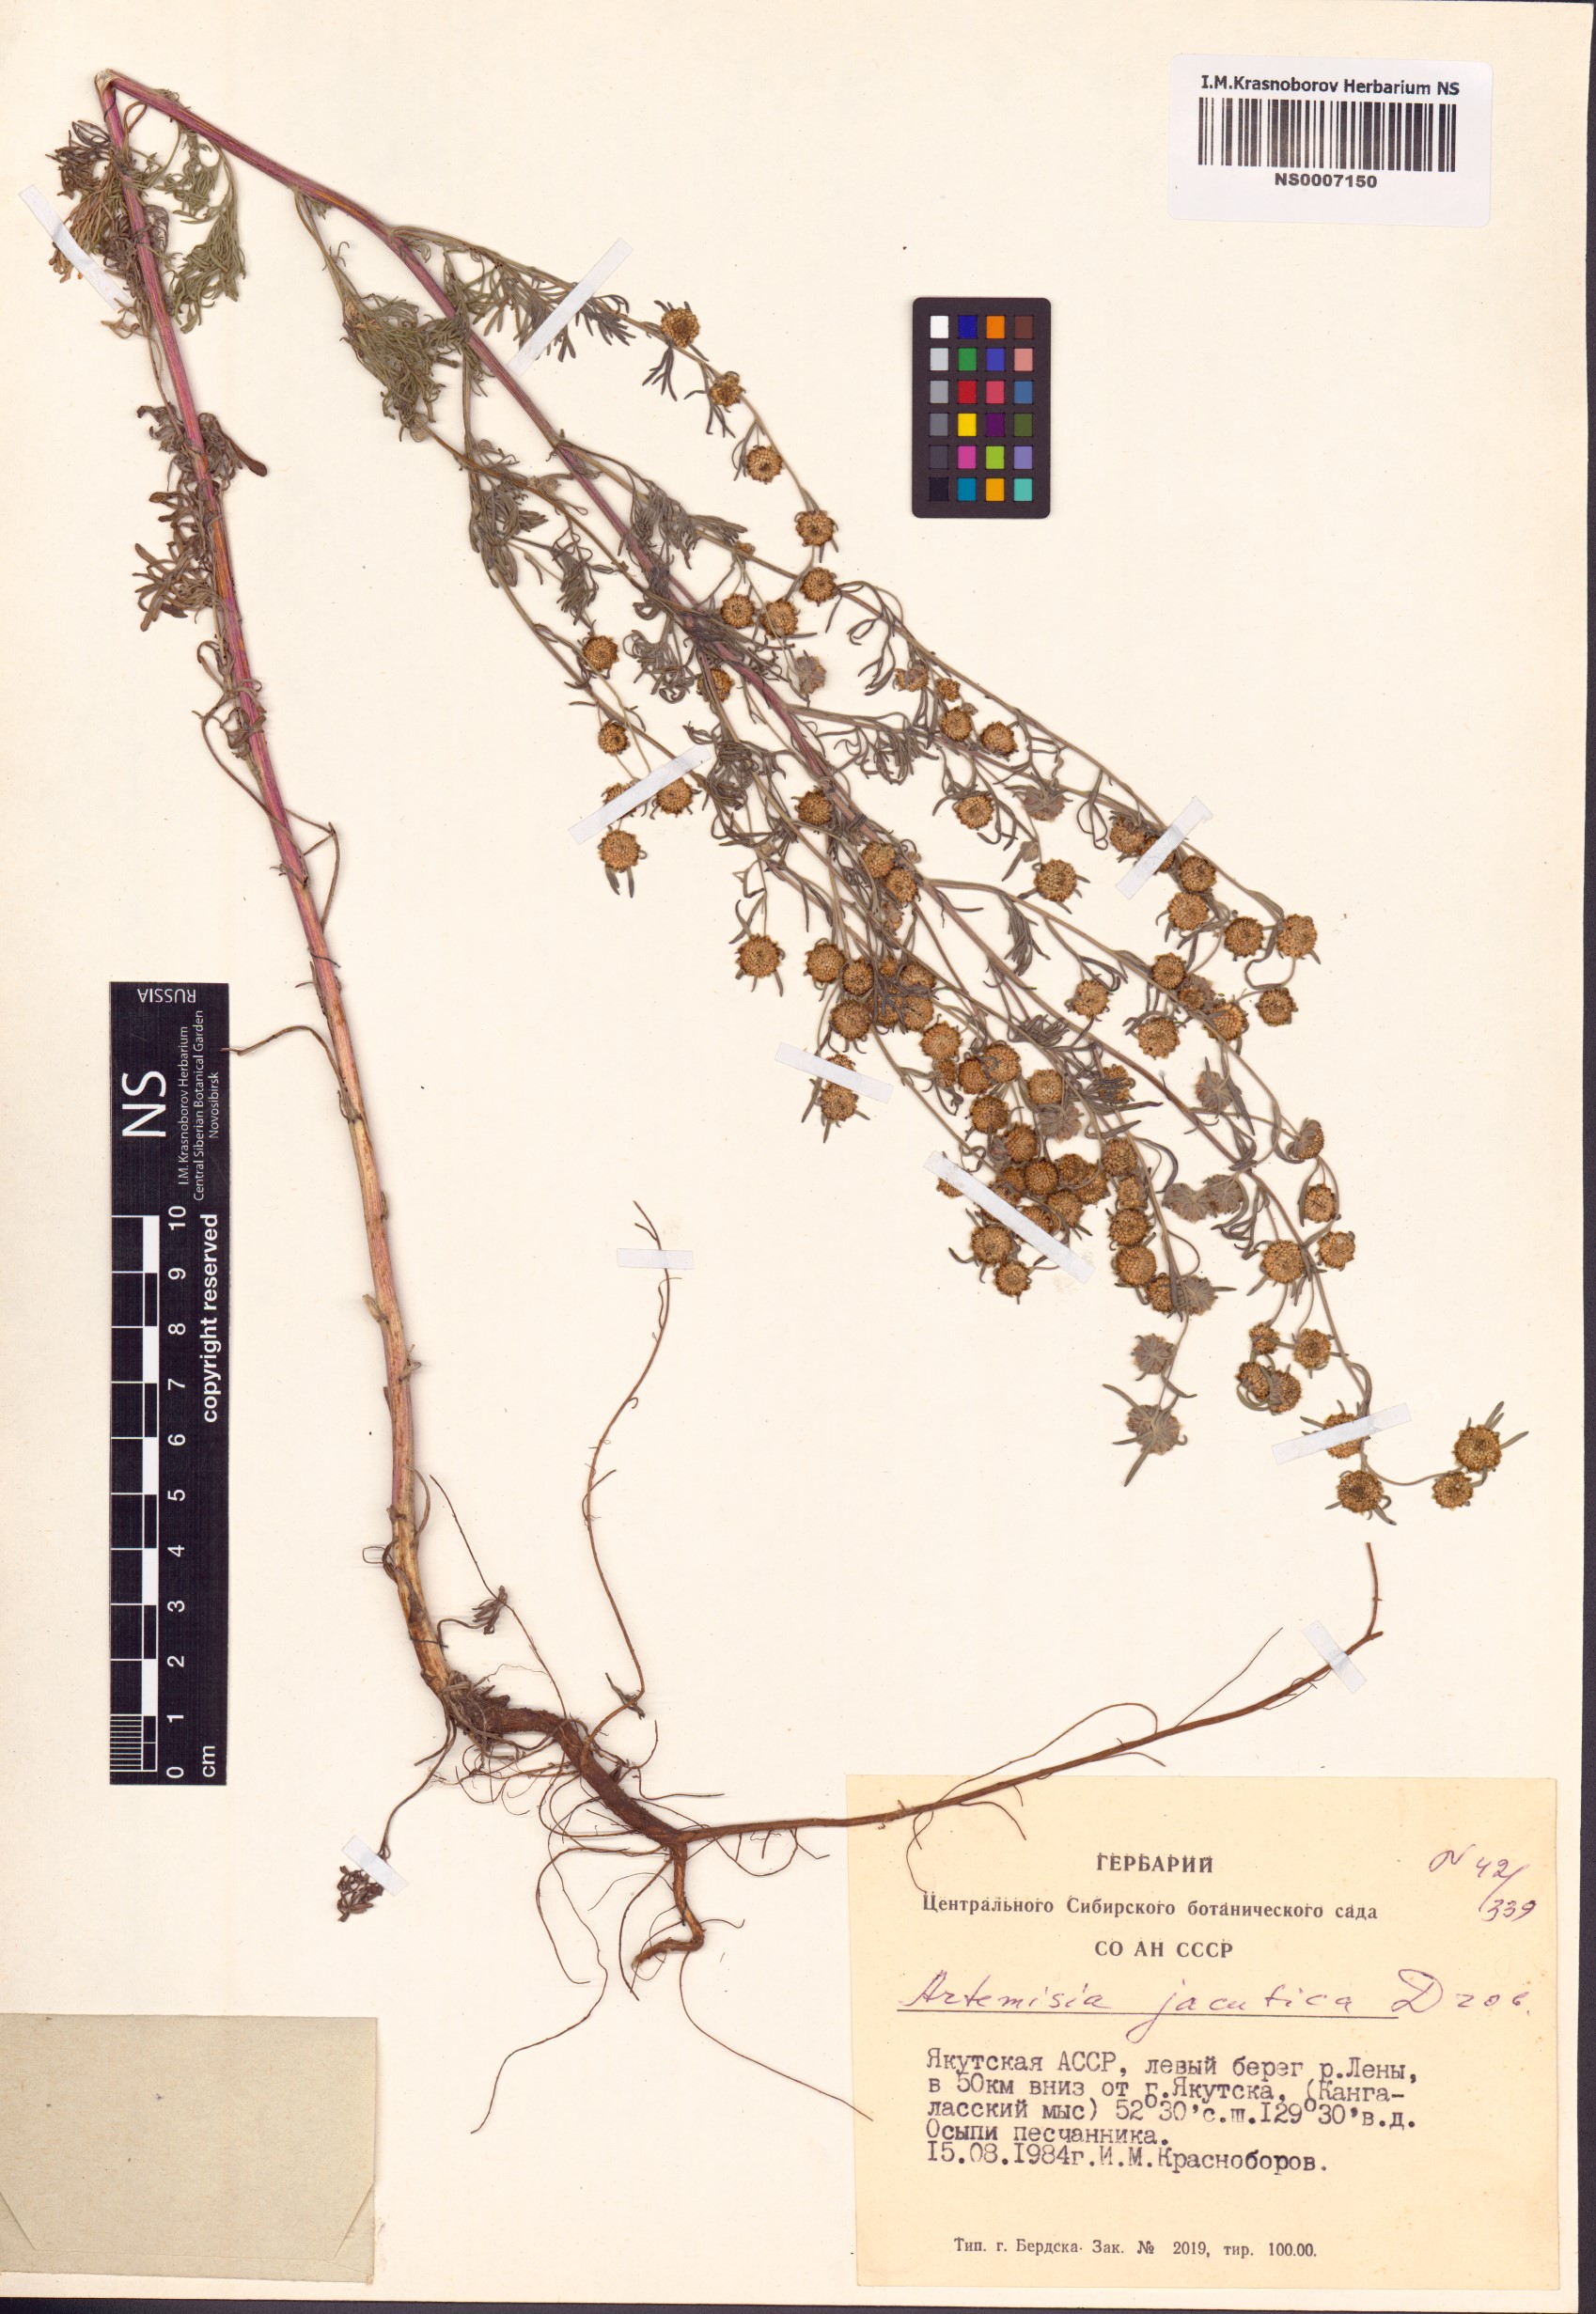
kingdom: Plantae
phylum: Tracheophyta
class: Magnoliopsida
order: Asterales
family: Asteraceae
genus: Artemisia
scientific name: Artemisia jacutica
